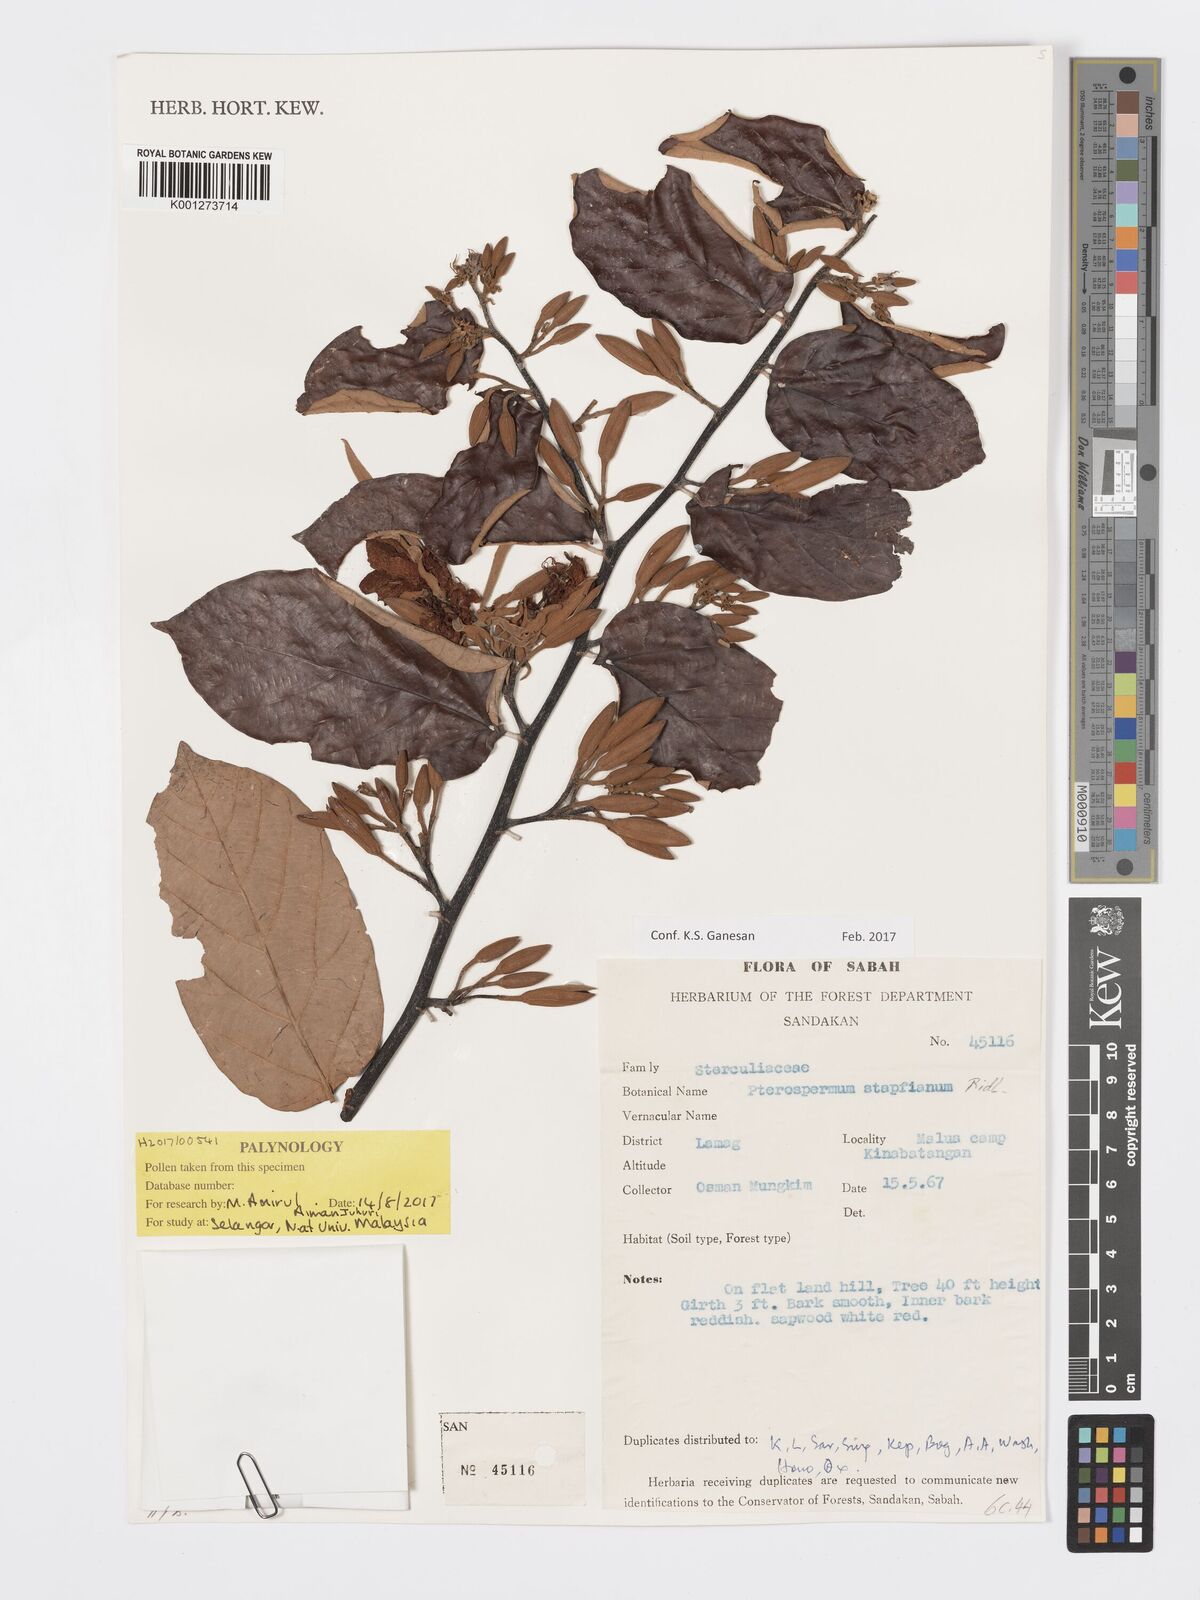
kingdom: Plantae
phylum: Tracheophyta
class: Magnoliopsida
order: Malvales
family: Malvaceae
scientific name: Malvaceae
